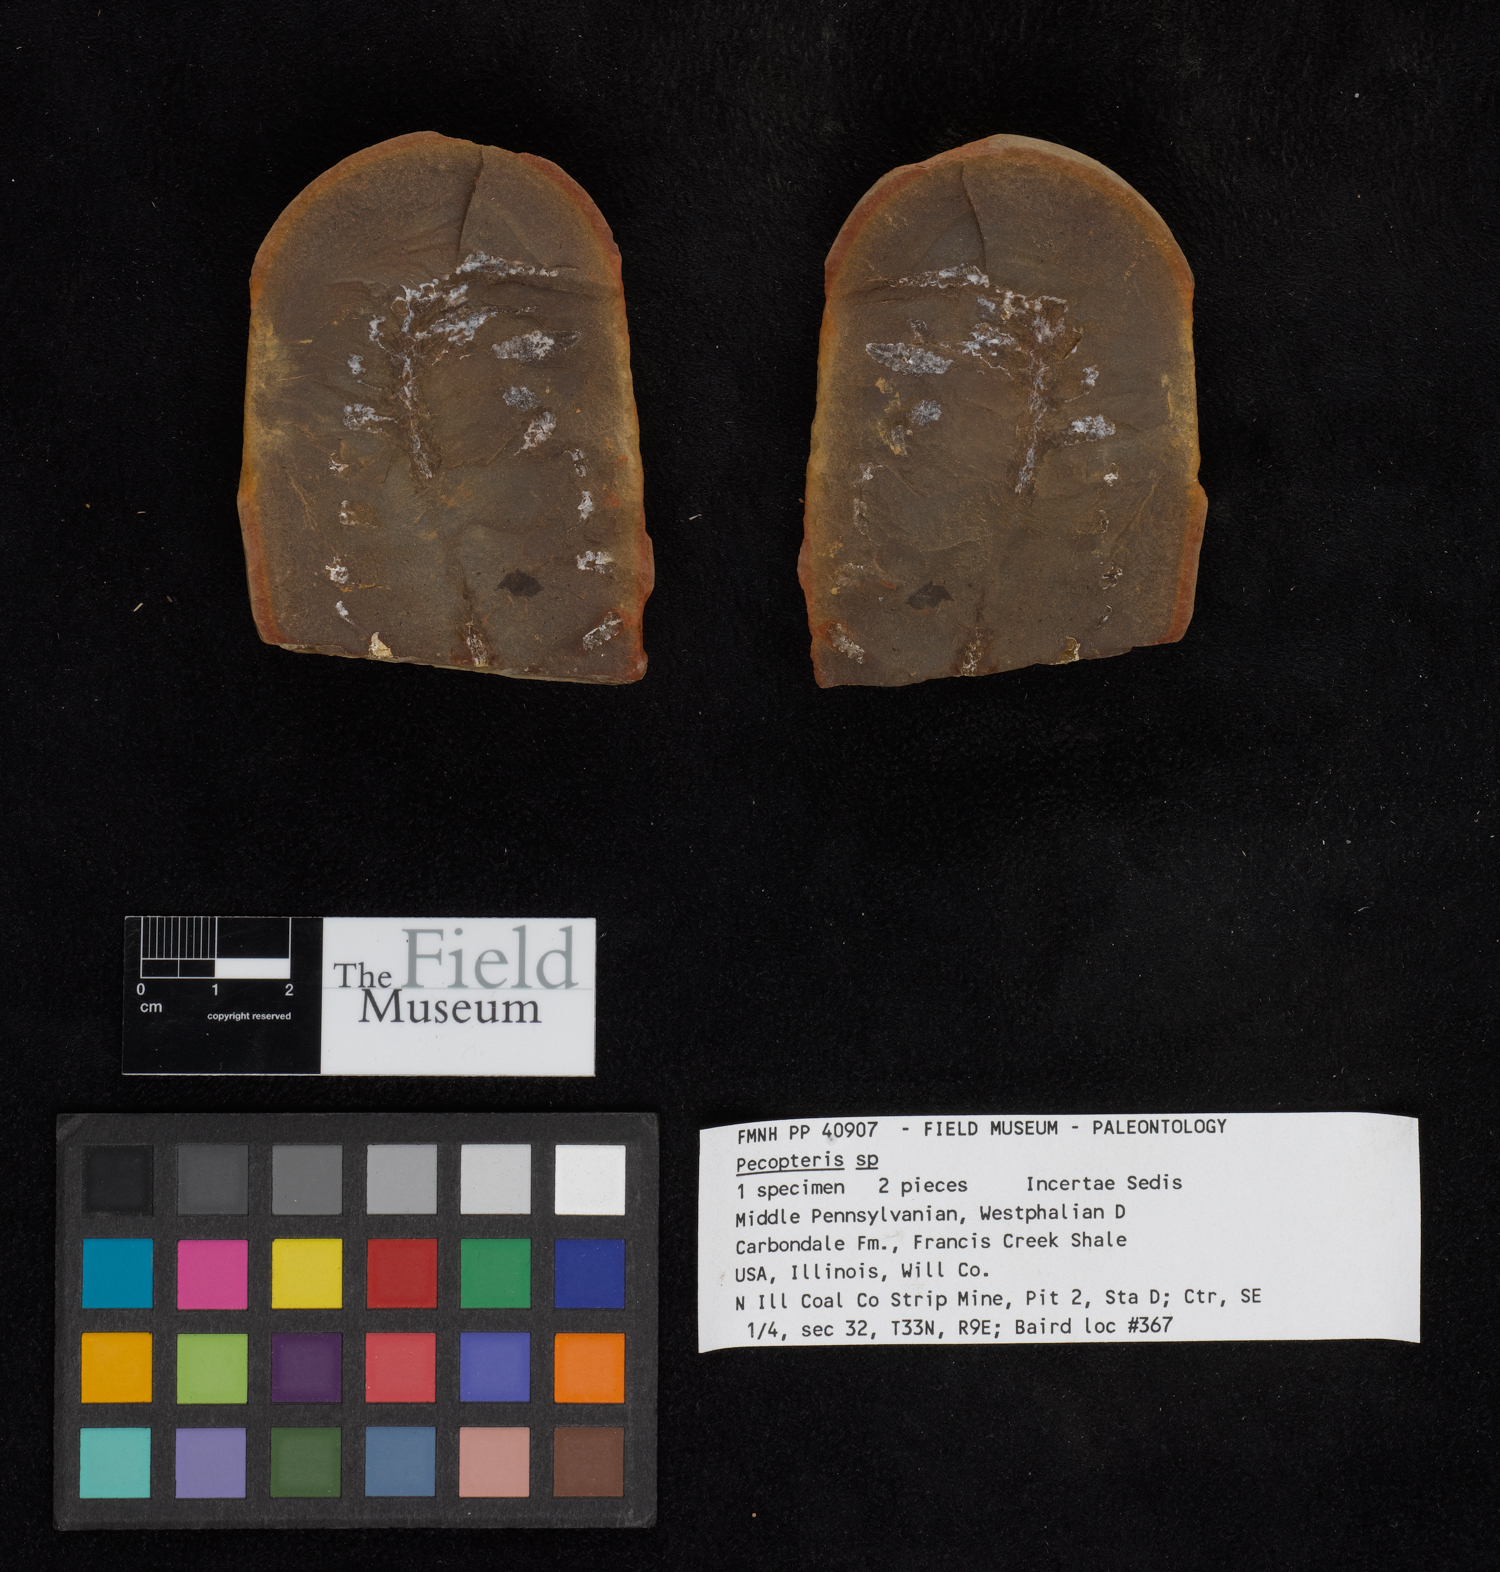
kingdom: Plantae
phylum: Tracheophyta
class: Polypodiopsida
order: Marattiales
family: Asterothecaceae
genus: Pecopteris
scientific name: Pecopteris
